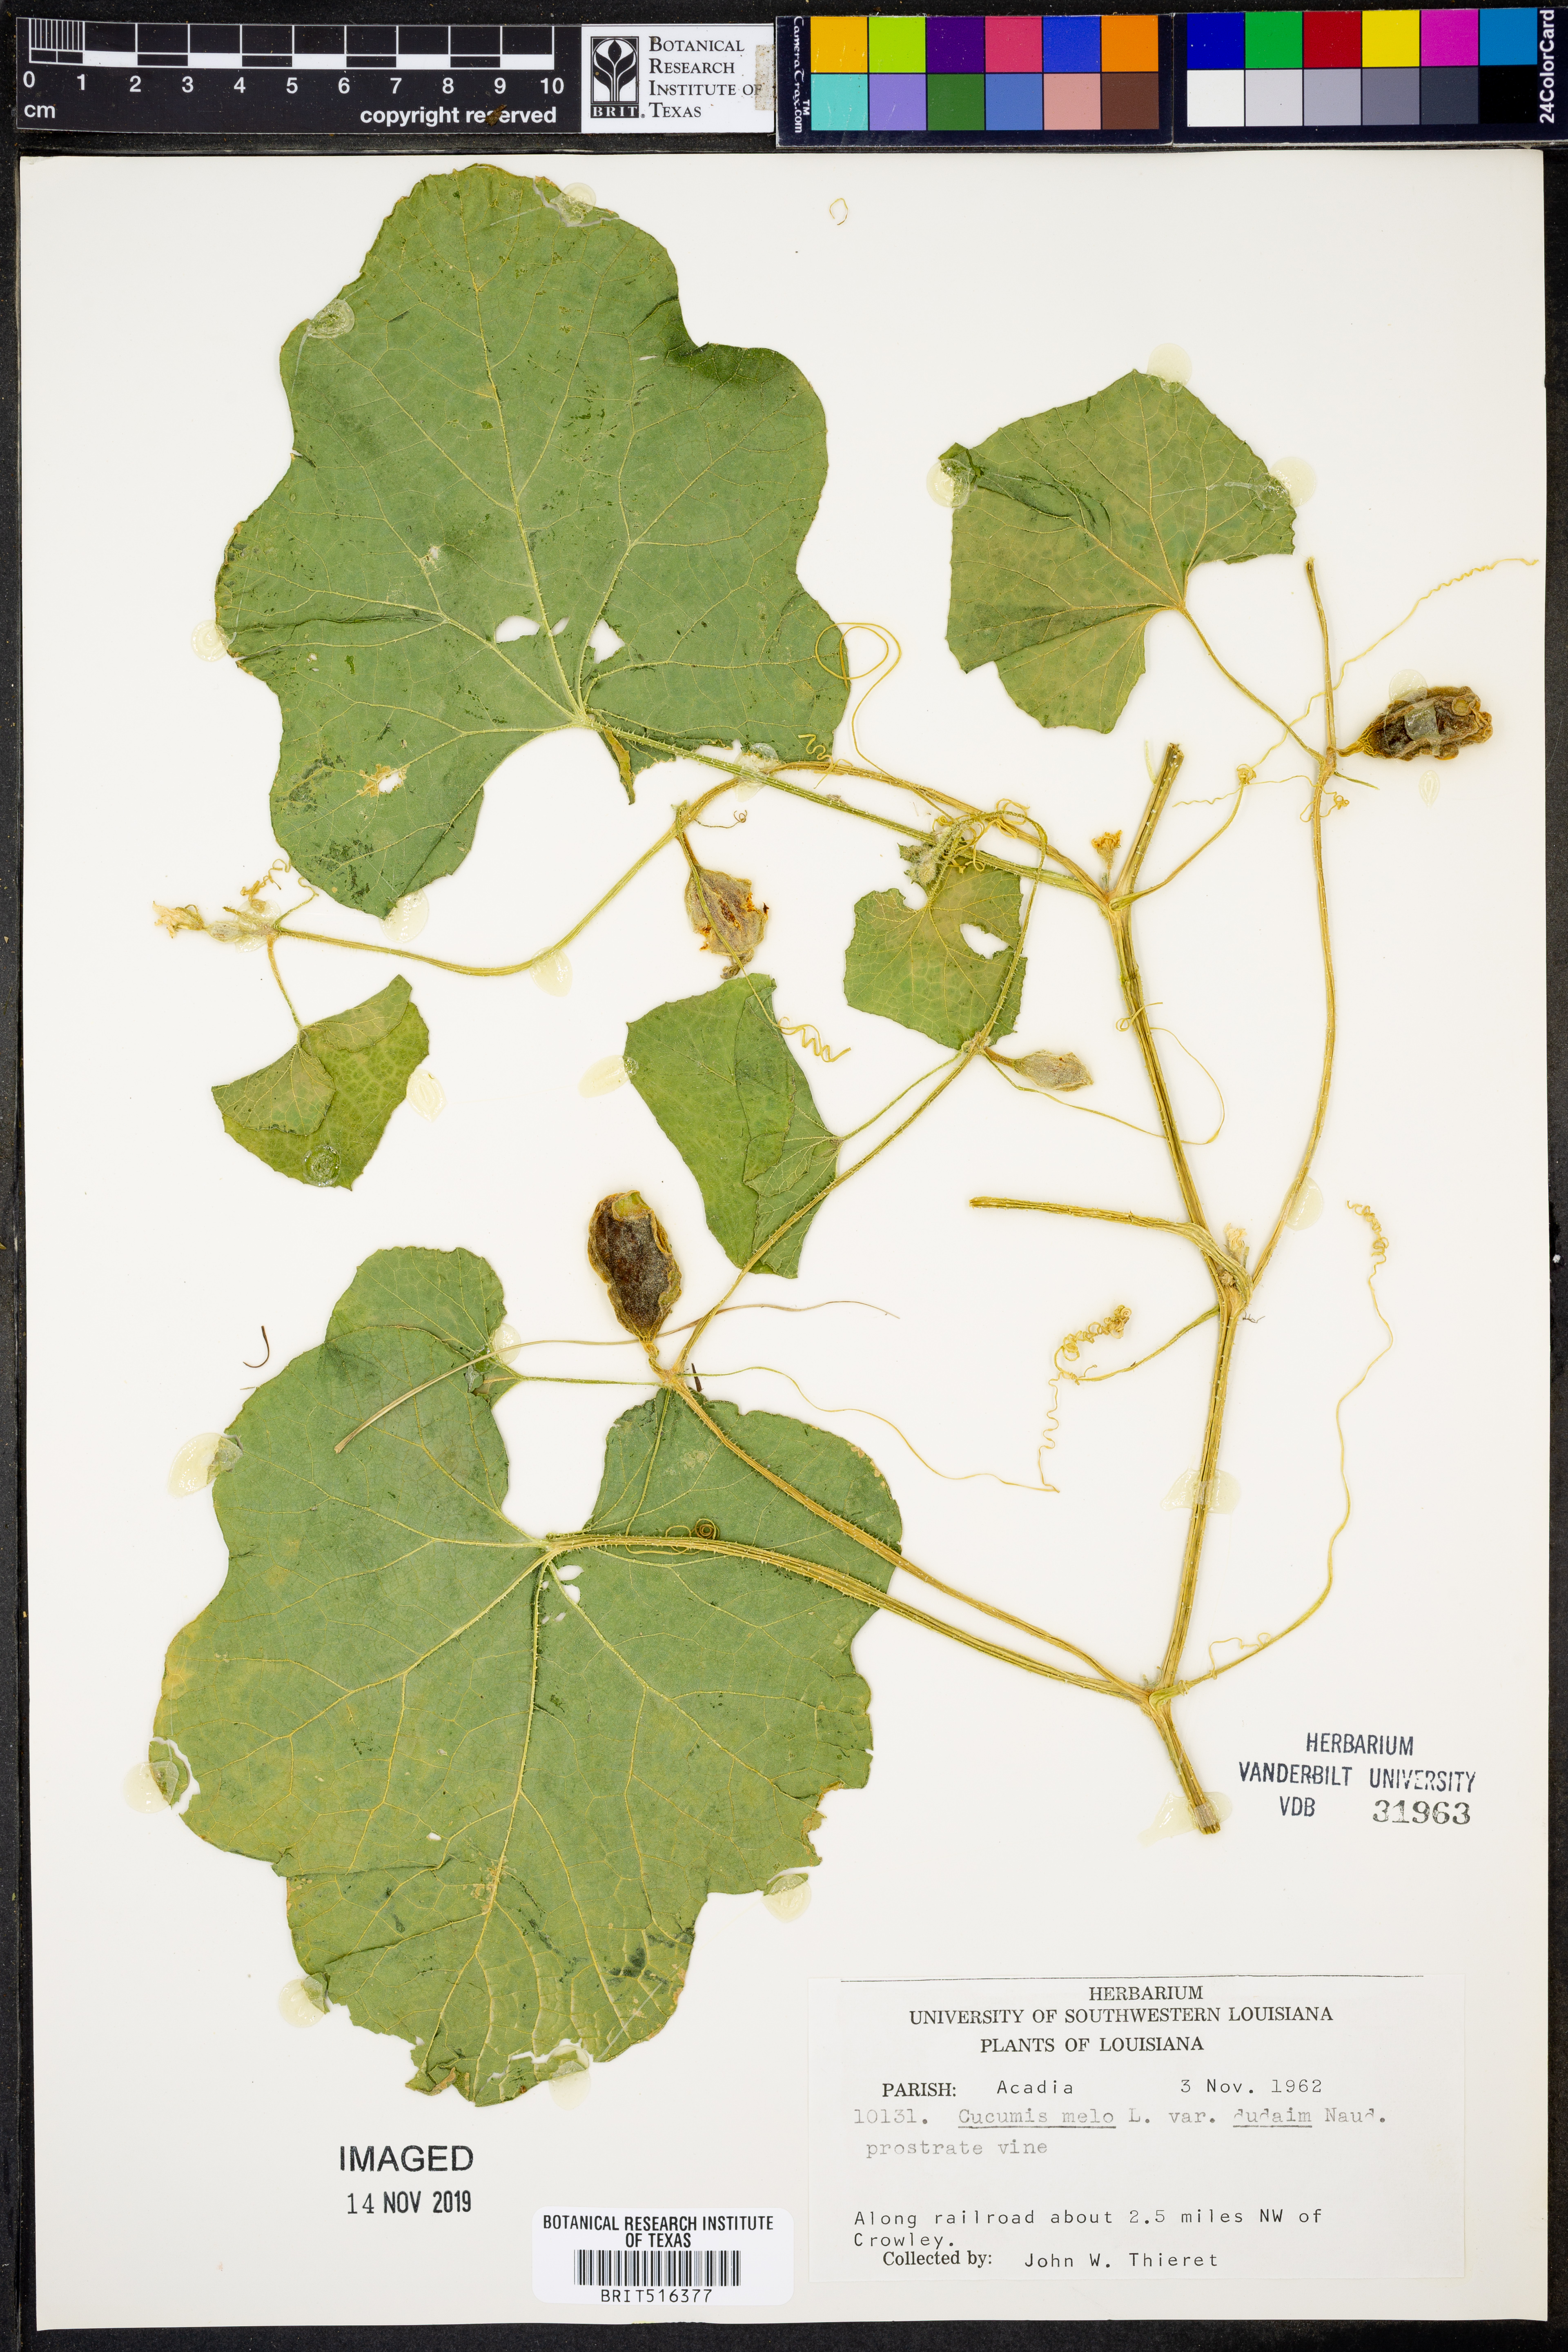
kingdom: Plantae
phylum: Tracheophyta
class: Magnoliopsida
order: Cucurbitales
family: Cucurbitaceae
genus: Cucumis
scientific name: Cucumis melo
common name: Melon
